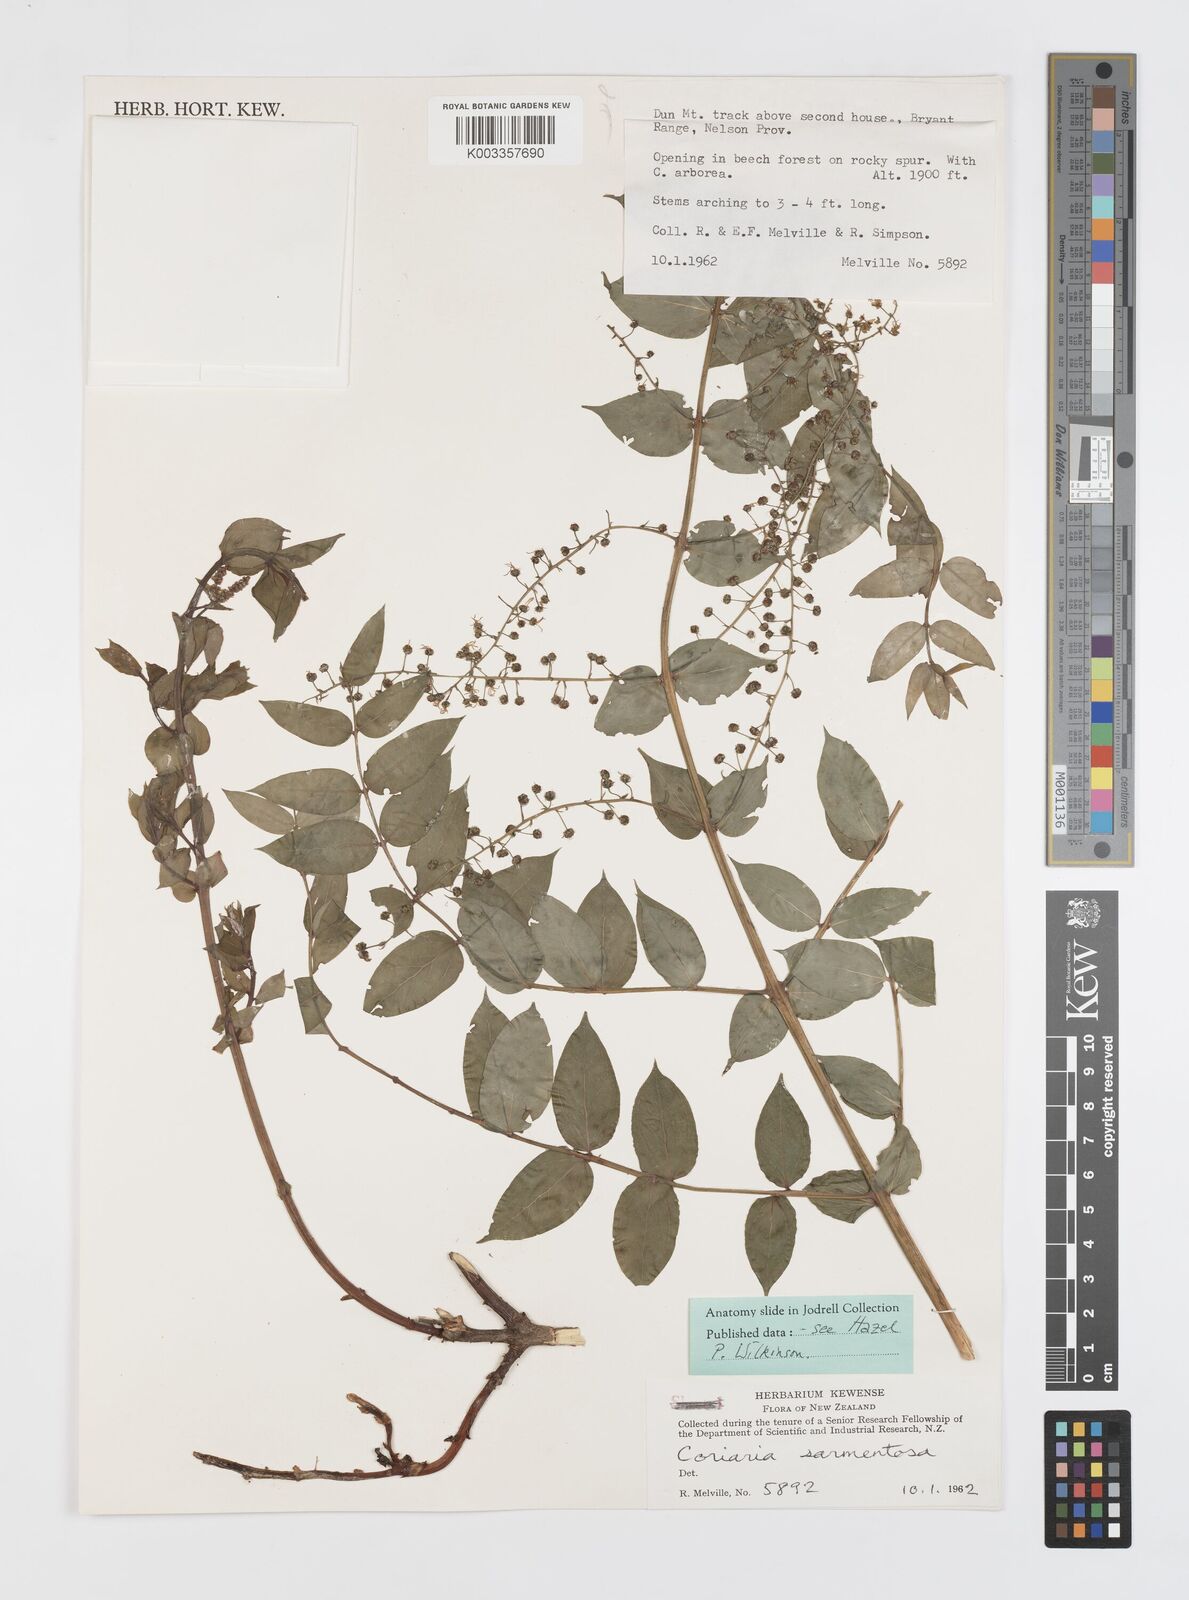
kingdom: Plantae
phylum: Tracheophyta
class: Magnoliopsida
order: Cucurbitales
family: Coriariaceae
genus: Coriaria
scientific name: Coriaria sarmentosa
